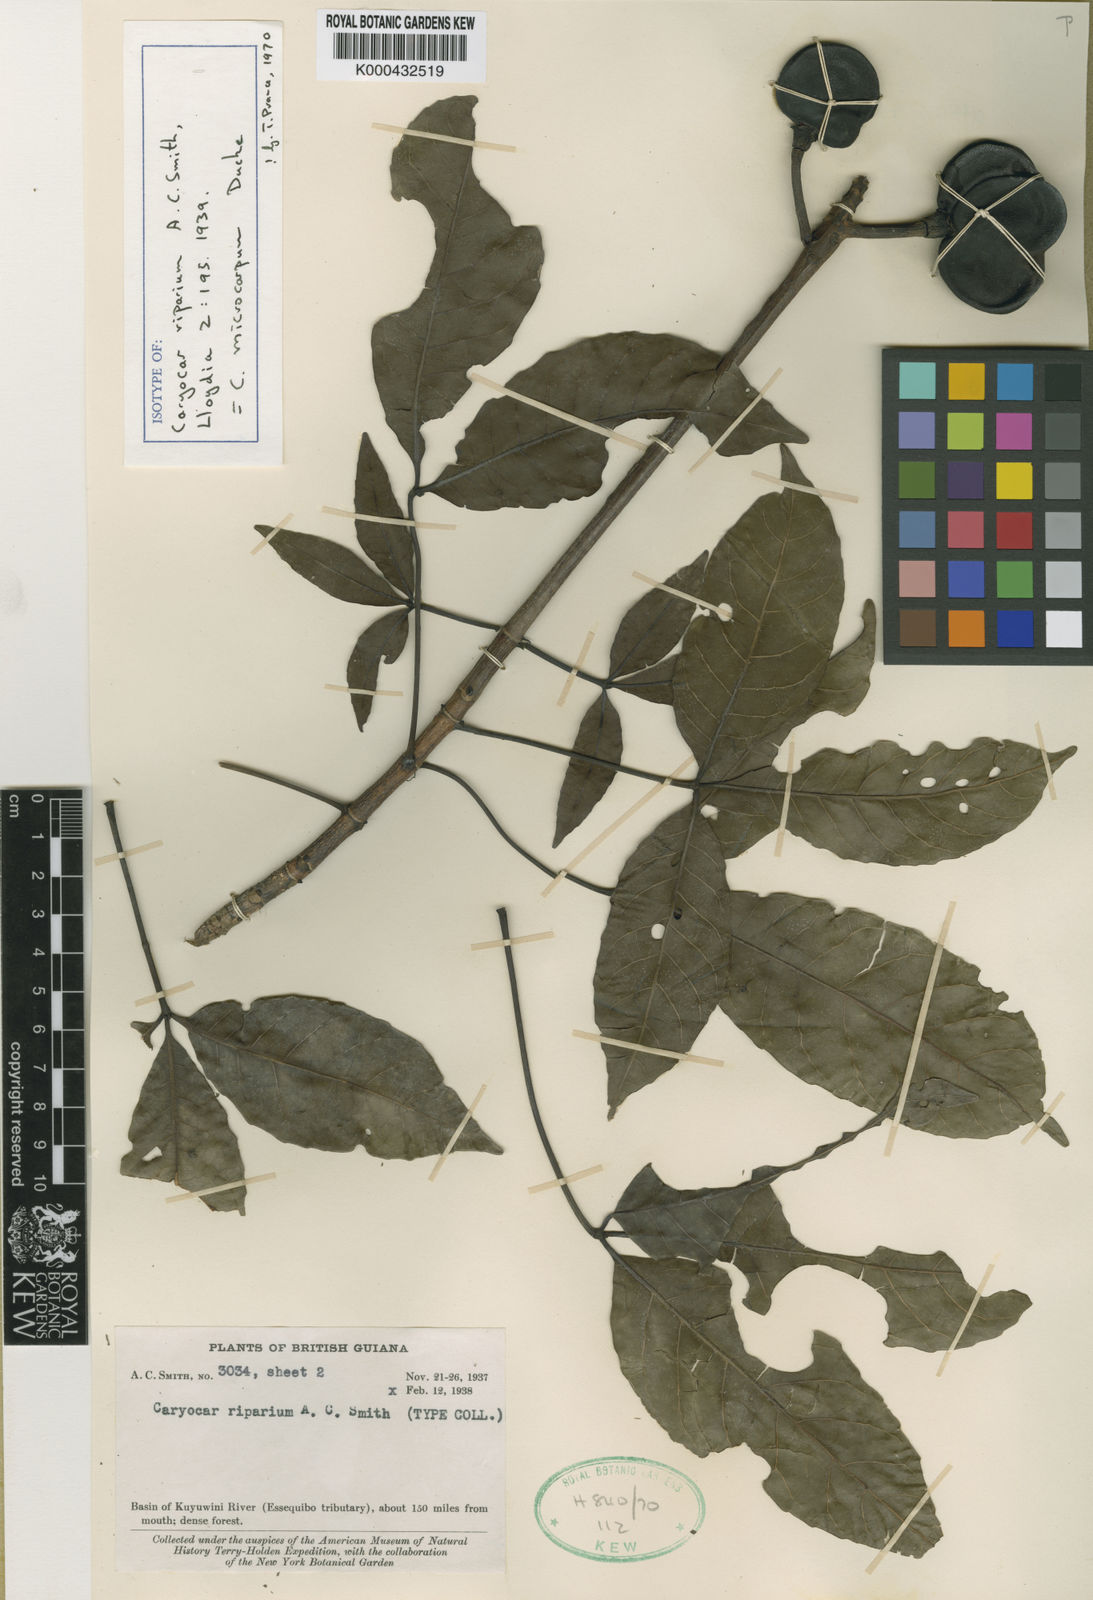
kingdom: Plantae
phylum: Tracheophyta
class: Magnoliopsida
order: Malpighiales
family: Caryocaraceae
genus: Caryocar
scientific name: Caryocar microcarpum
